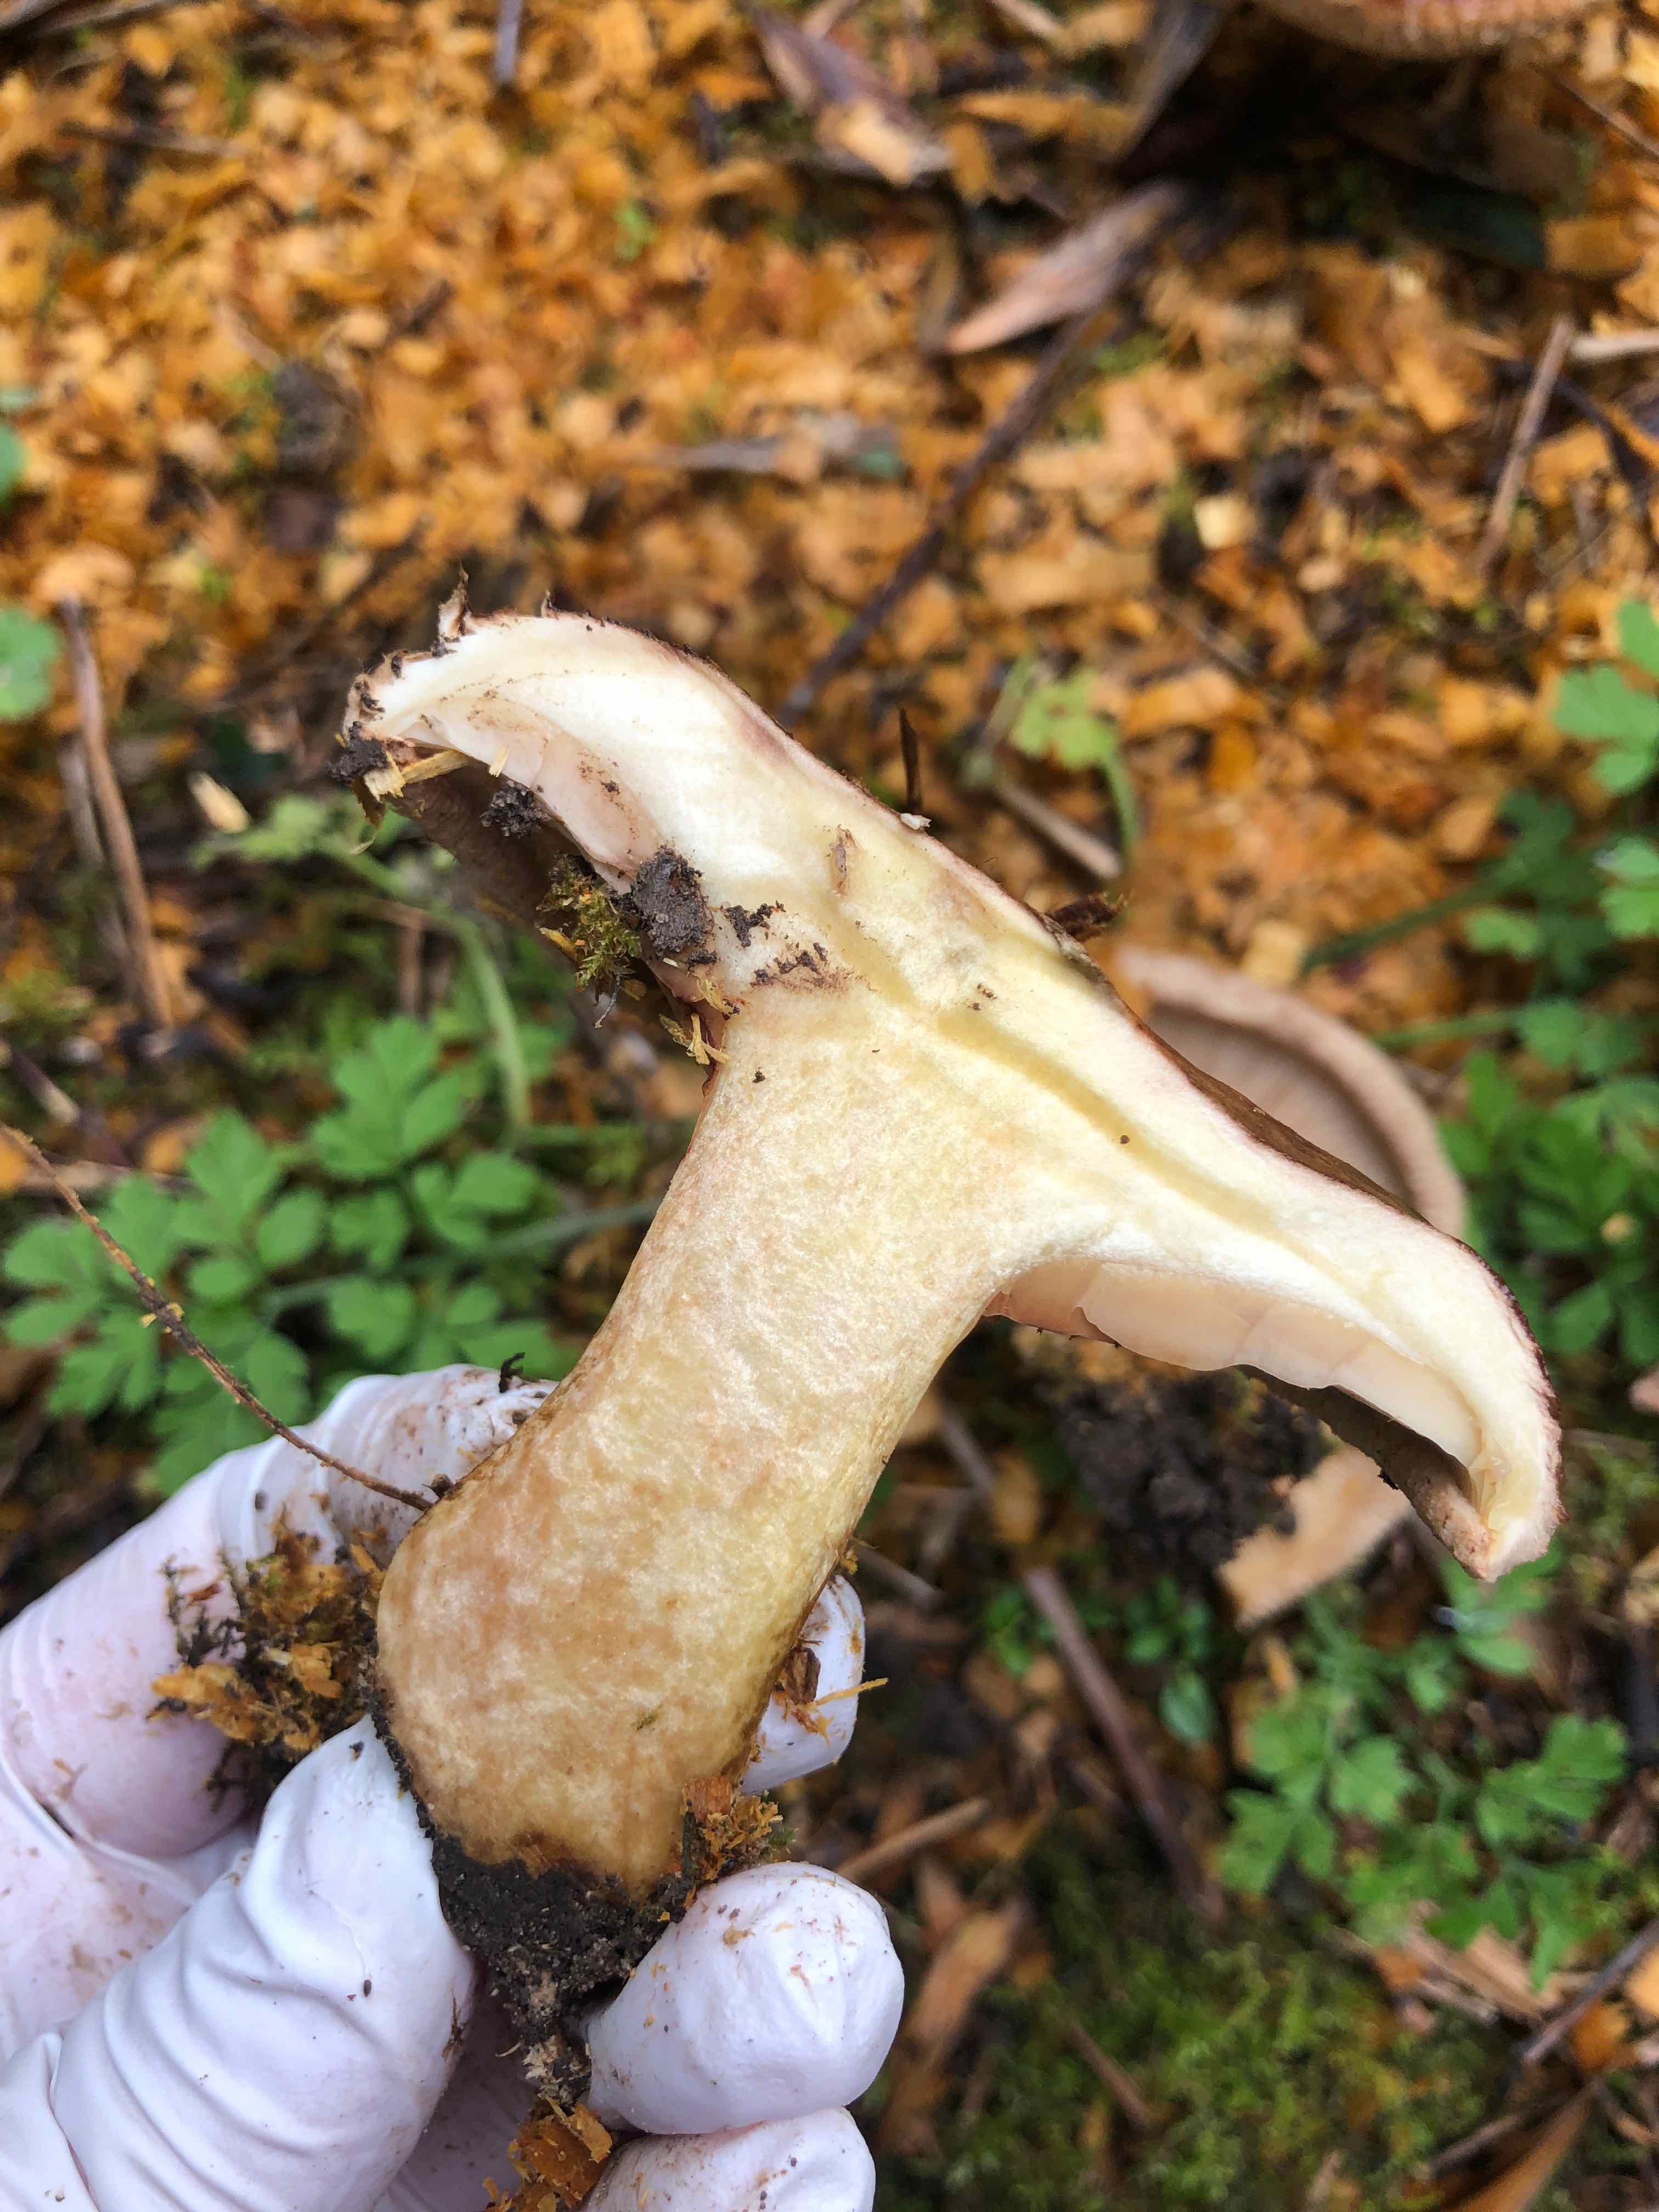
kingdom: Fungi
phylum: Basidiomycota
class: Agaricomycetes
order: Boletales
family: Paxillaceae
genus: Paxillus
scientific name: Paxillus
